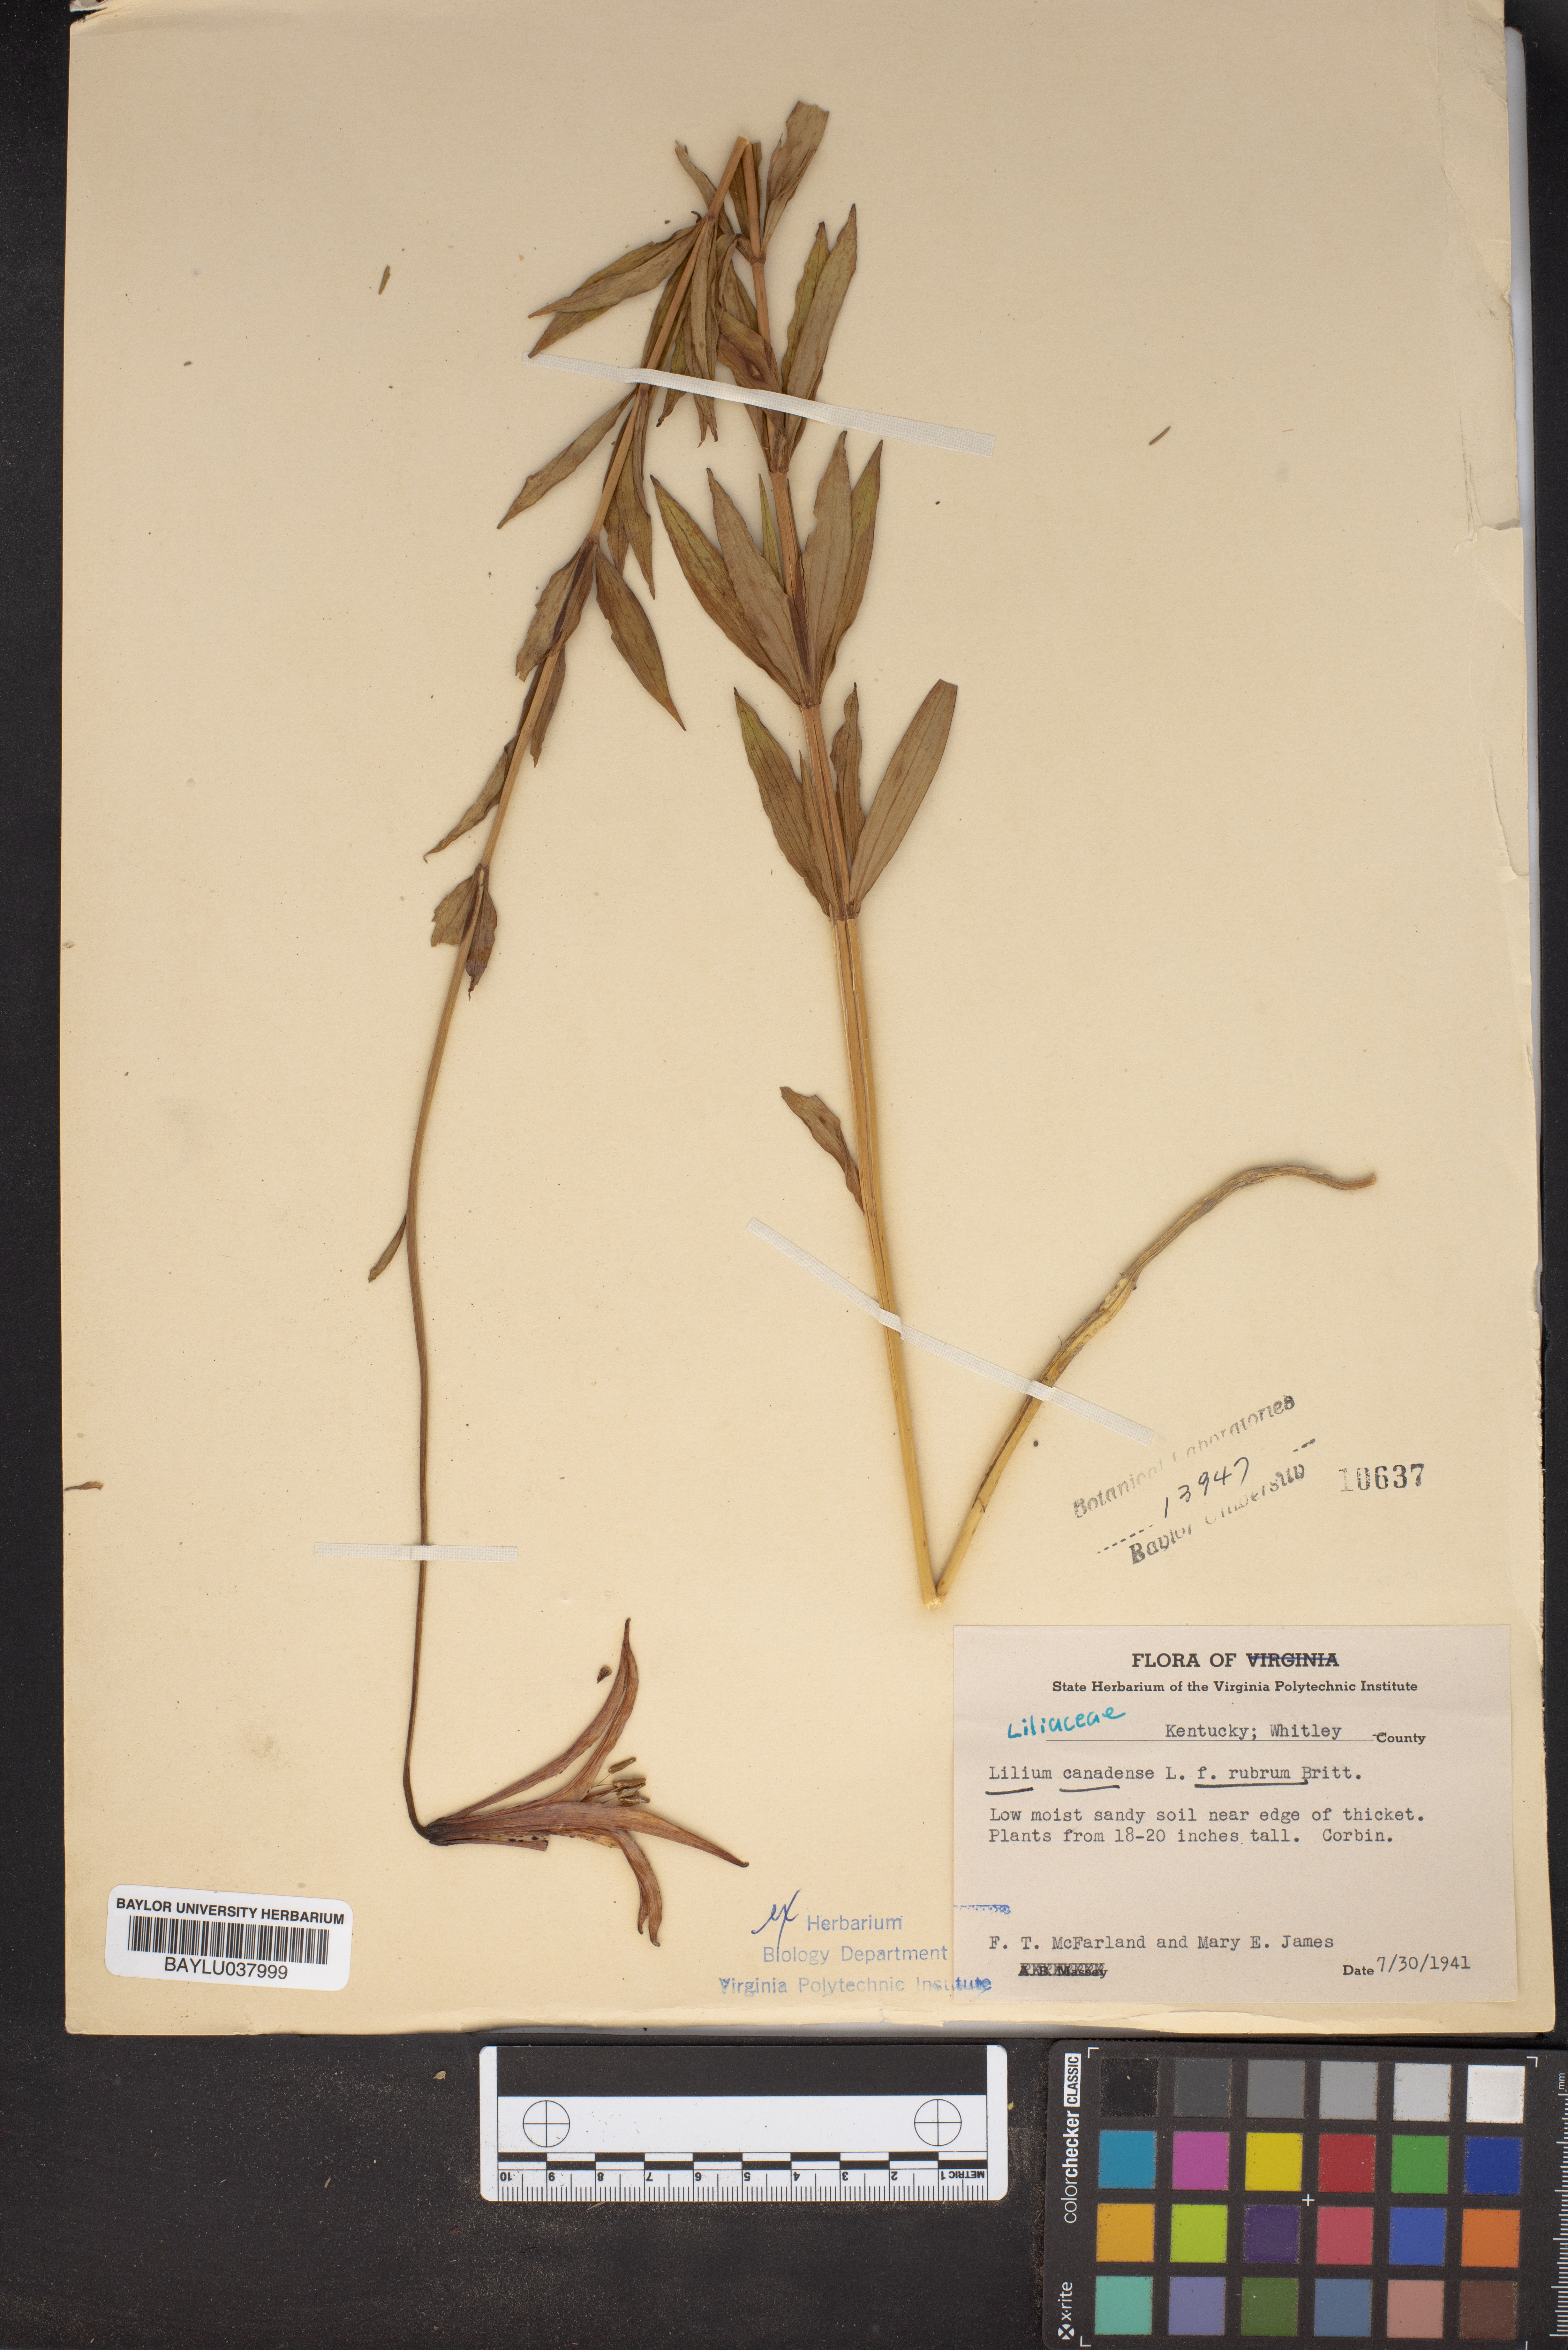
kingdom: Plantae
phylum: Tracheophyta
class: Liliopsida
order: Liliales
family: Liliaceae
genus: Lilium
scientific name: Lilium canadense
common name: Canada lily
